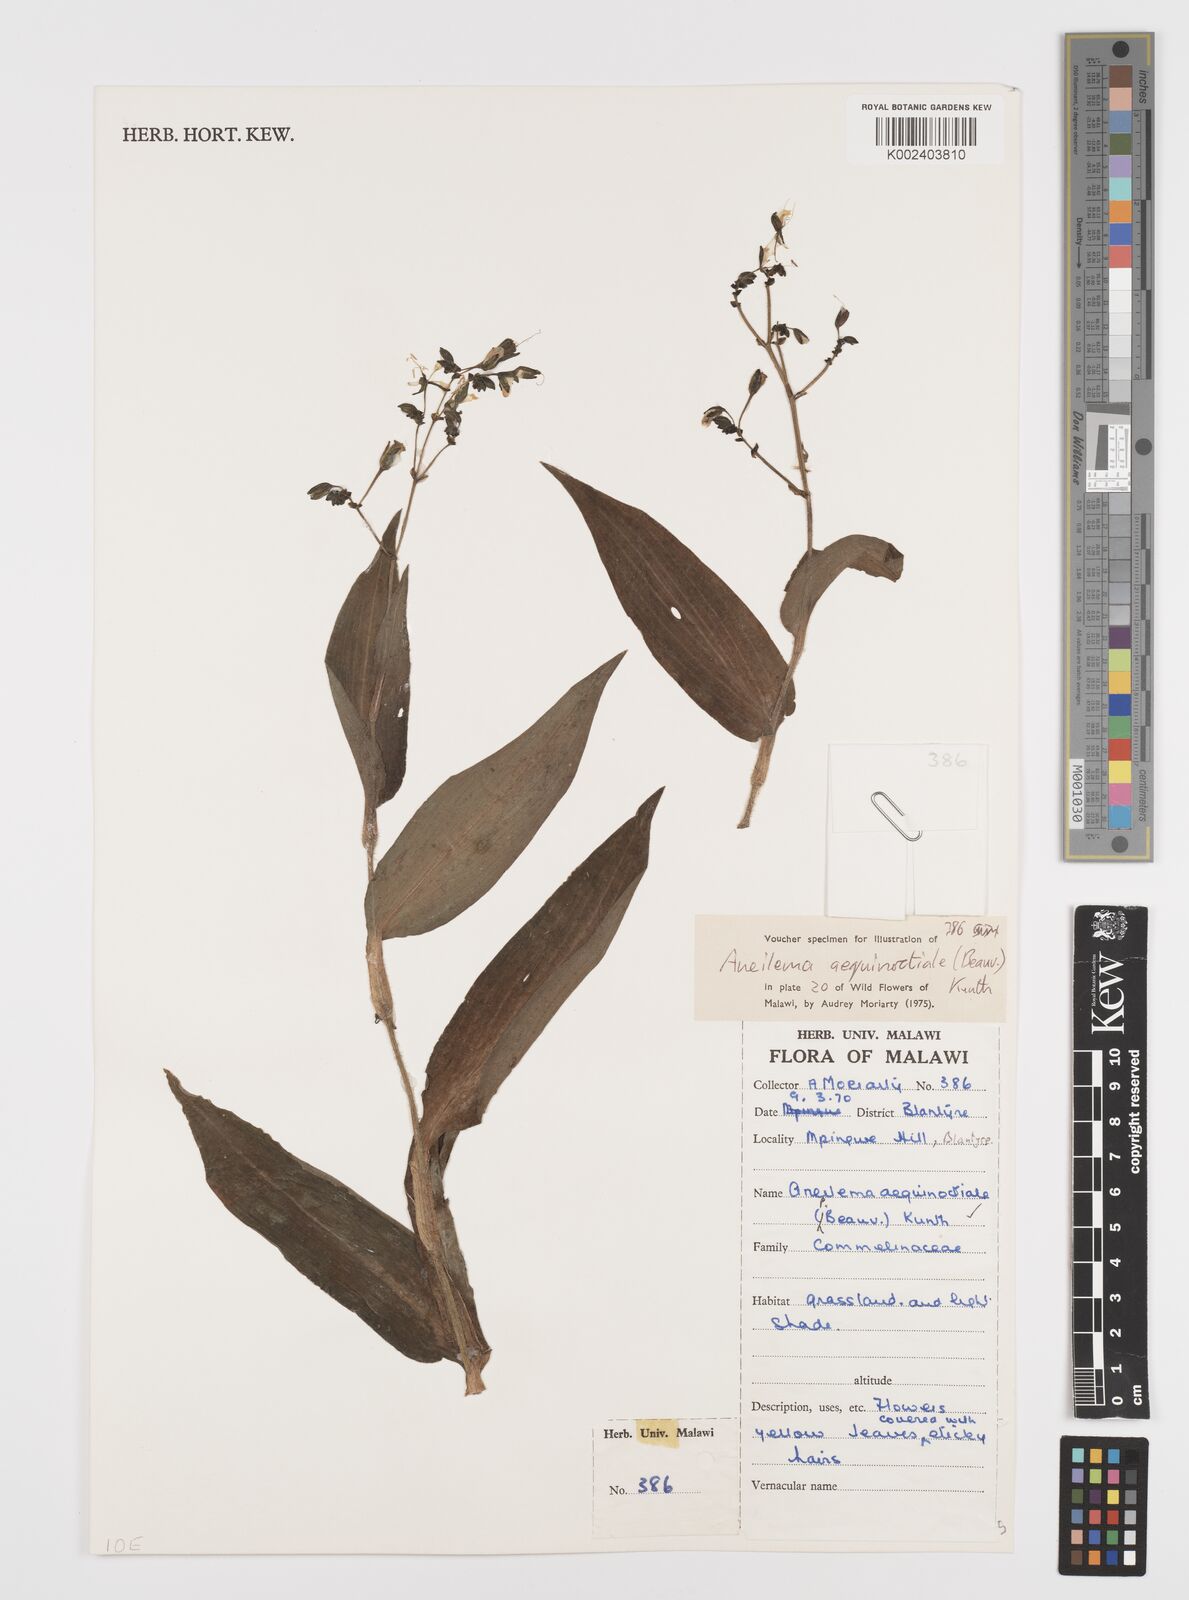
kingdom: Plantae
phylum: Tracheophyta
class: Liliopsida
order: Commelinales
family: Commelinaceae
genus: Aneilema
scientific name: Aneilema aequinoctiale
